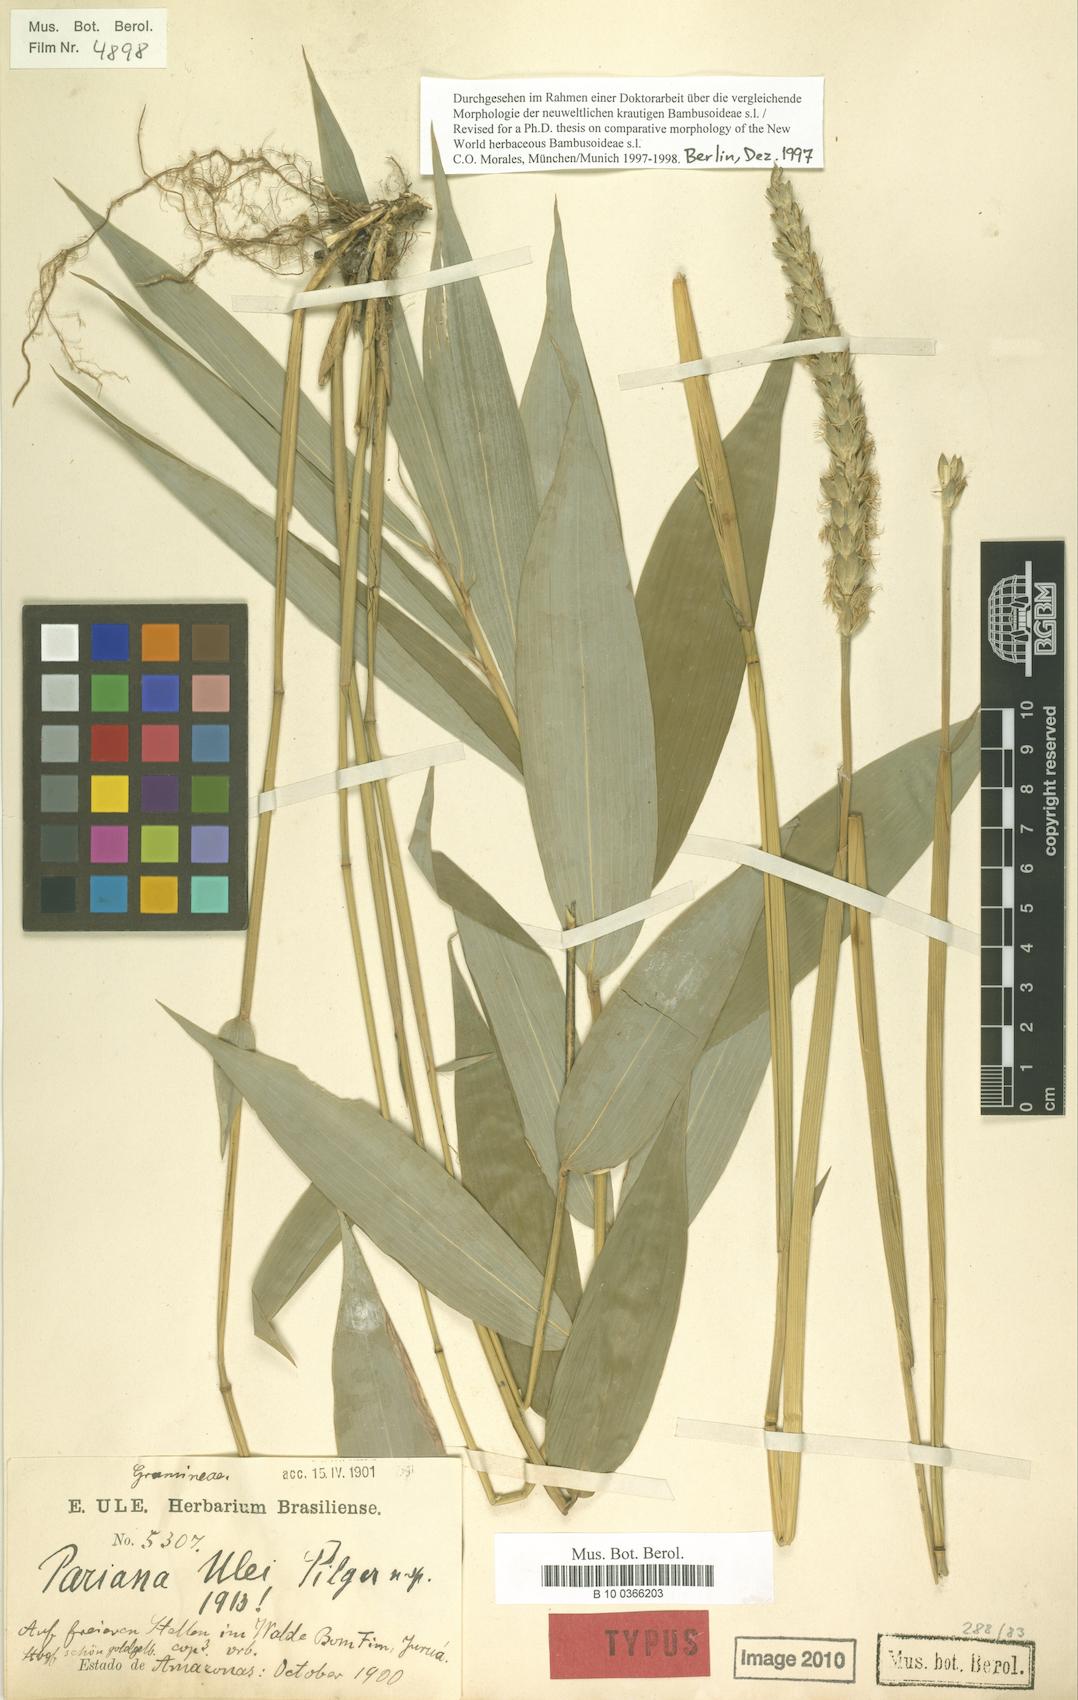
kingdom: Plantae
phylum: Tracheophyta
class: Liliopsida
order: Poales
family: Poaceae
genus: Pariana
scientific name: Pariana ulei
